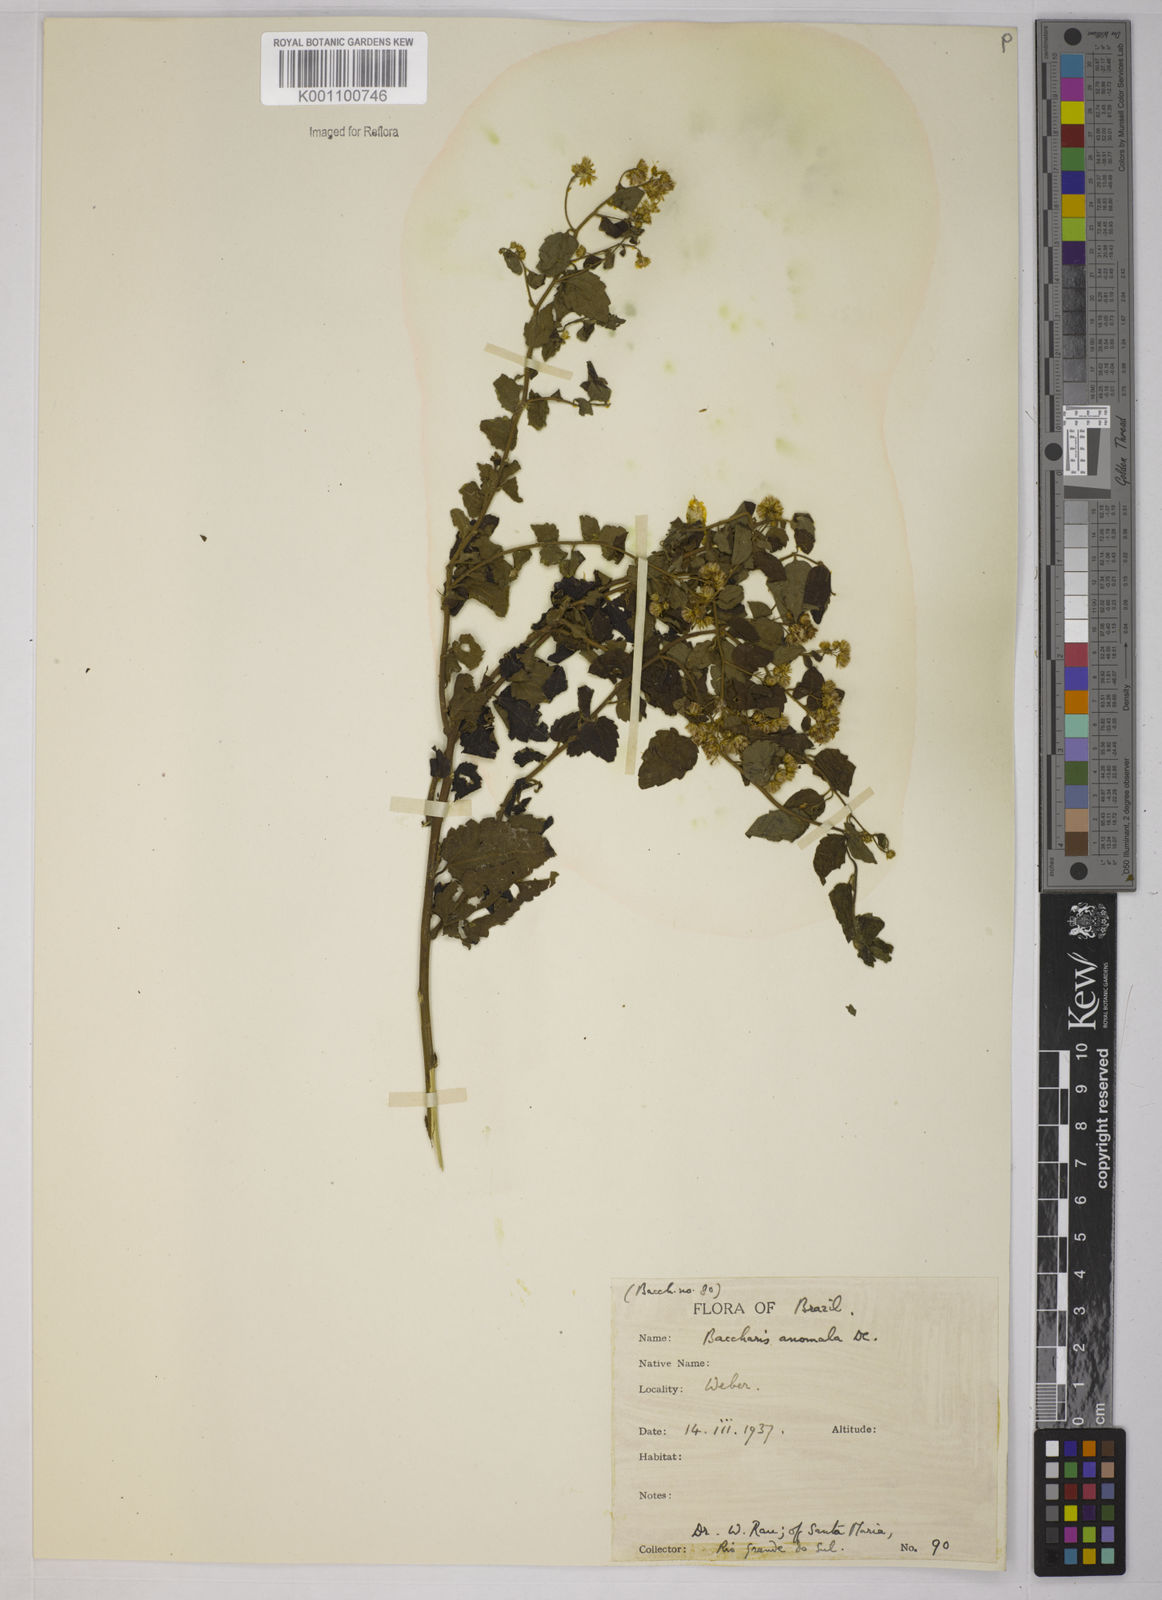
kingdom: Plantae
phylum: Tracheophyta
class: Magnoliopsida
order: Asterales
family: Asteraceae
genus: Baccharis
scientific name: Baccharis anomala
